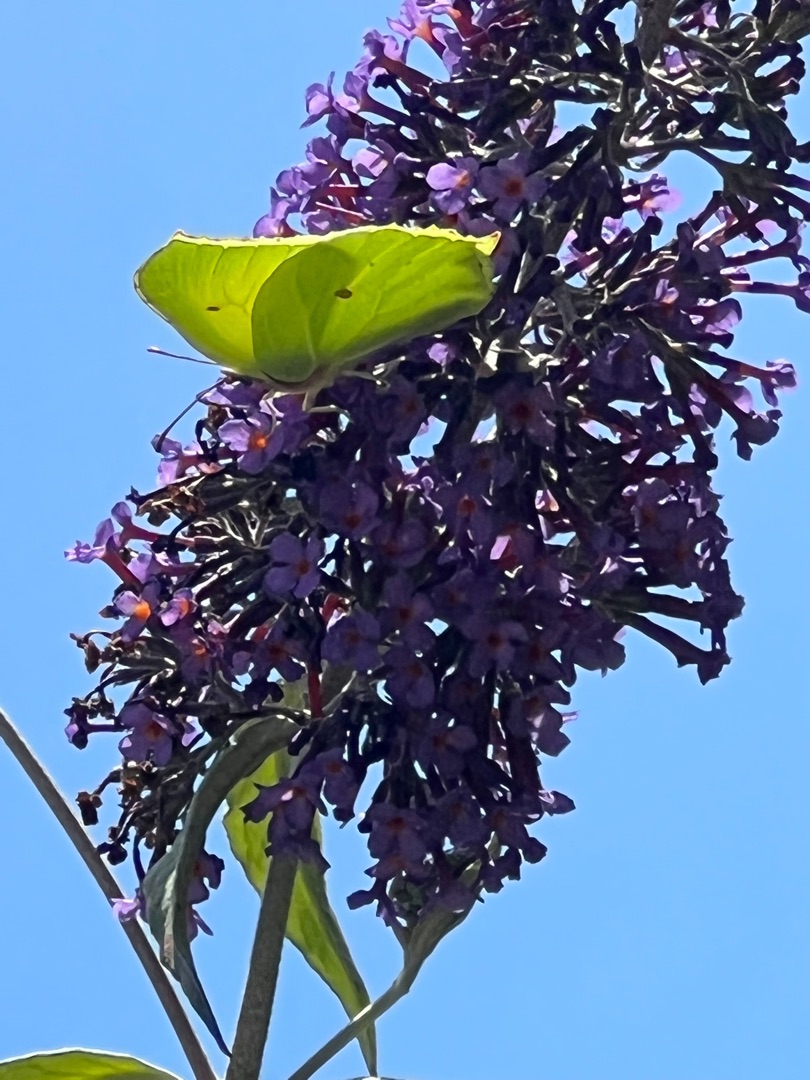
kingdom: Animalia
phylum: Arthropoda
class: Insecta
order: Lepidoptera
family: Pieridae
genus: Gonepteryx
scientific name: Gonepteryx rhamni
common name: Citronsommerfugl
